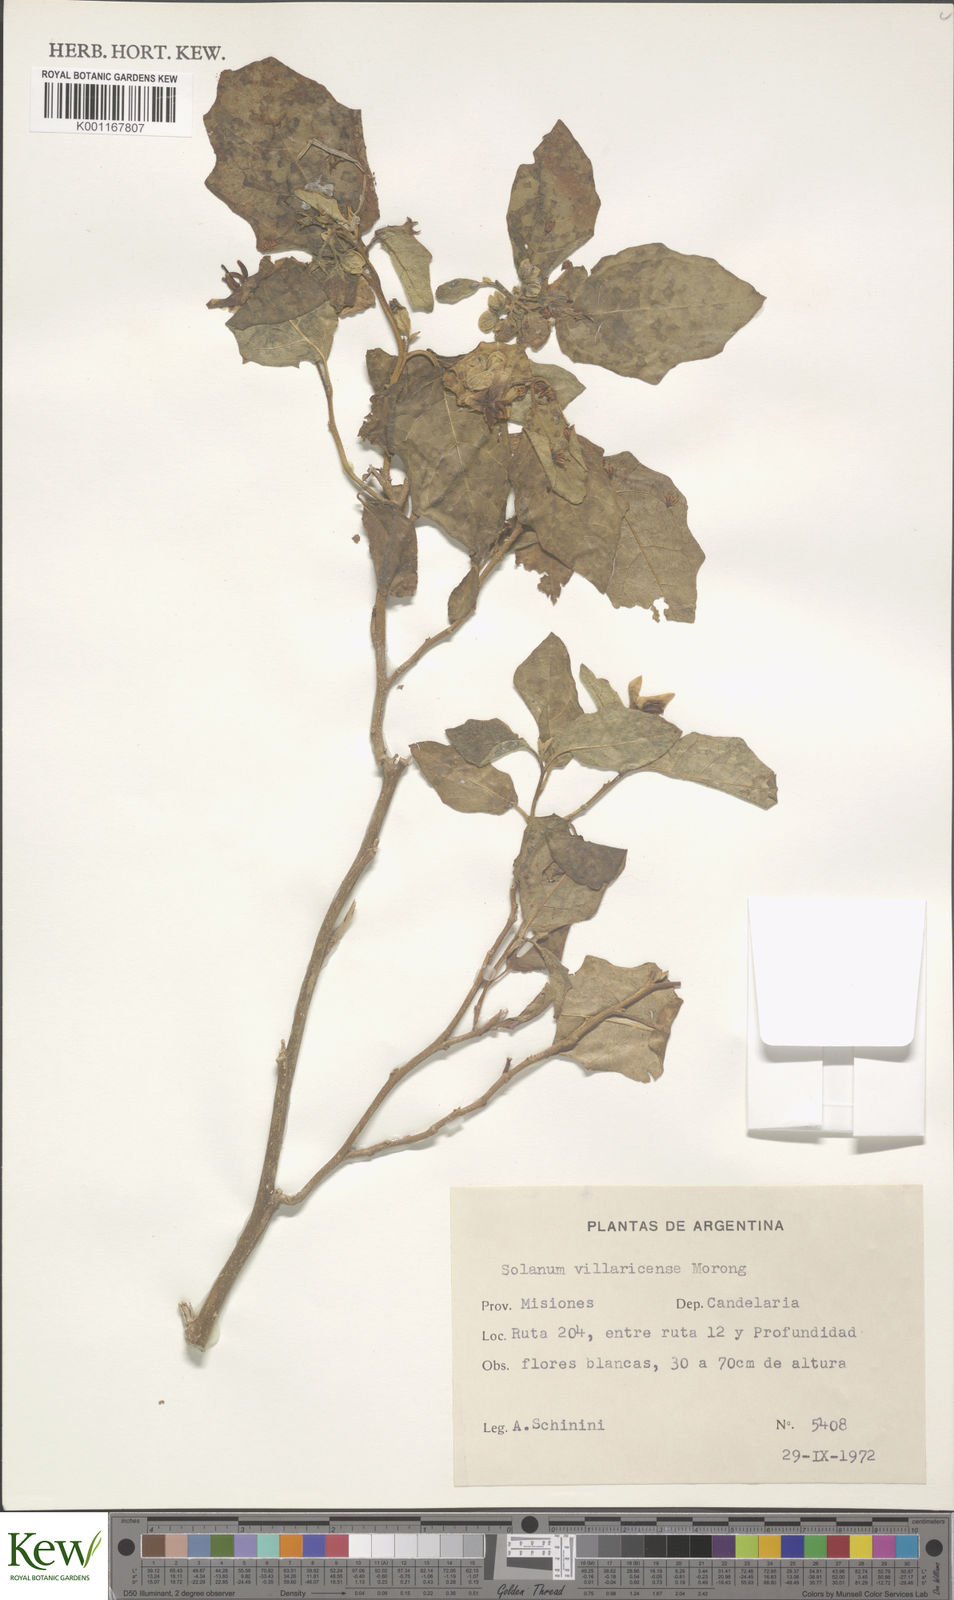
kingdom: Plantae
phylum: Tracheophyta
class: Magnoliopsida
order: Solanales
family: Solanaceae
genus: Solanum
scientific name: Solanum guaraniticum
